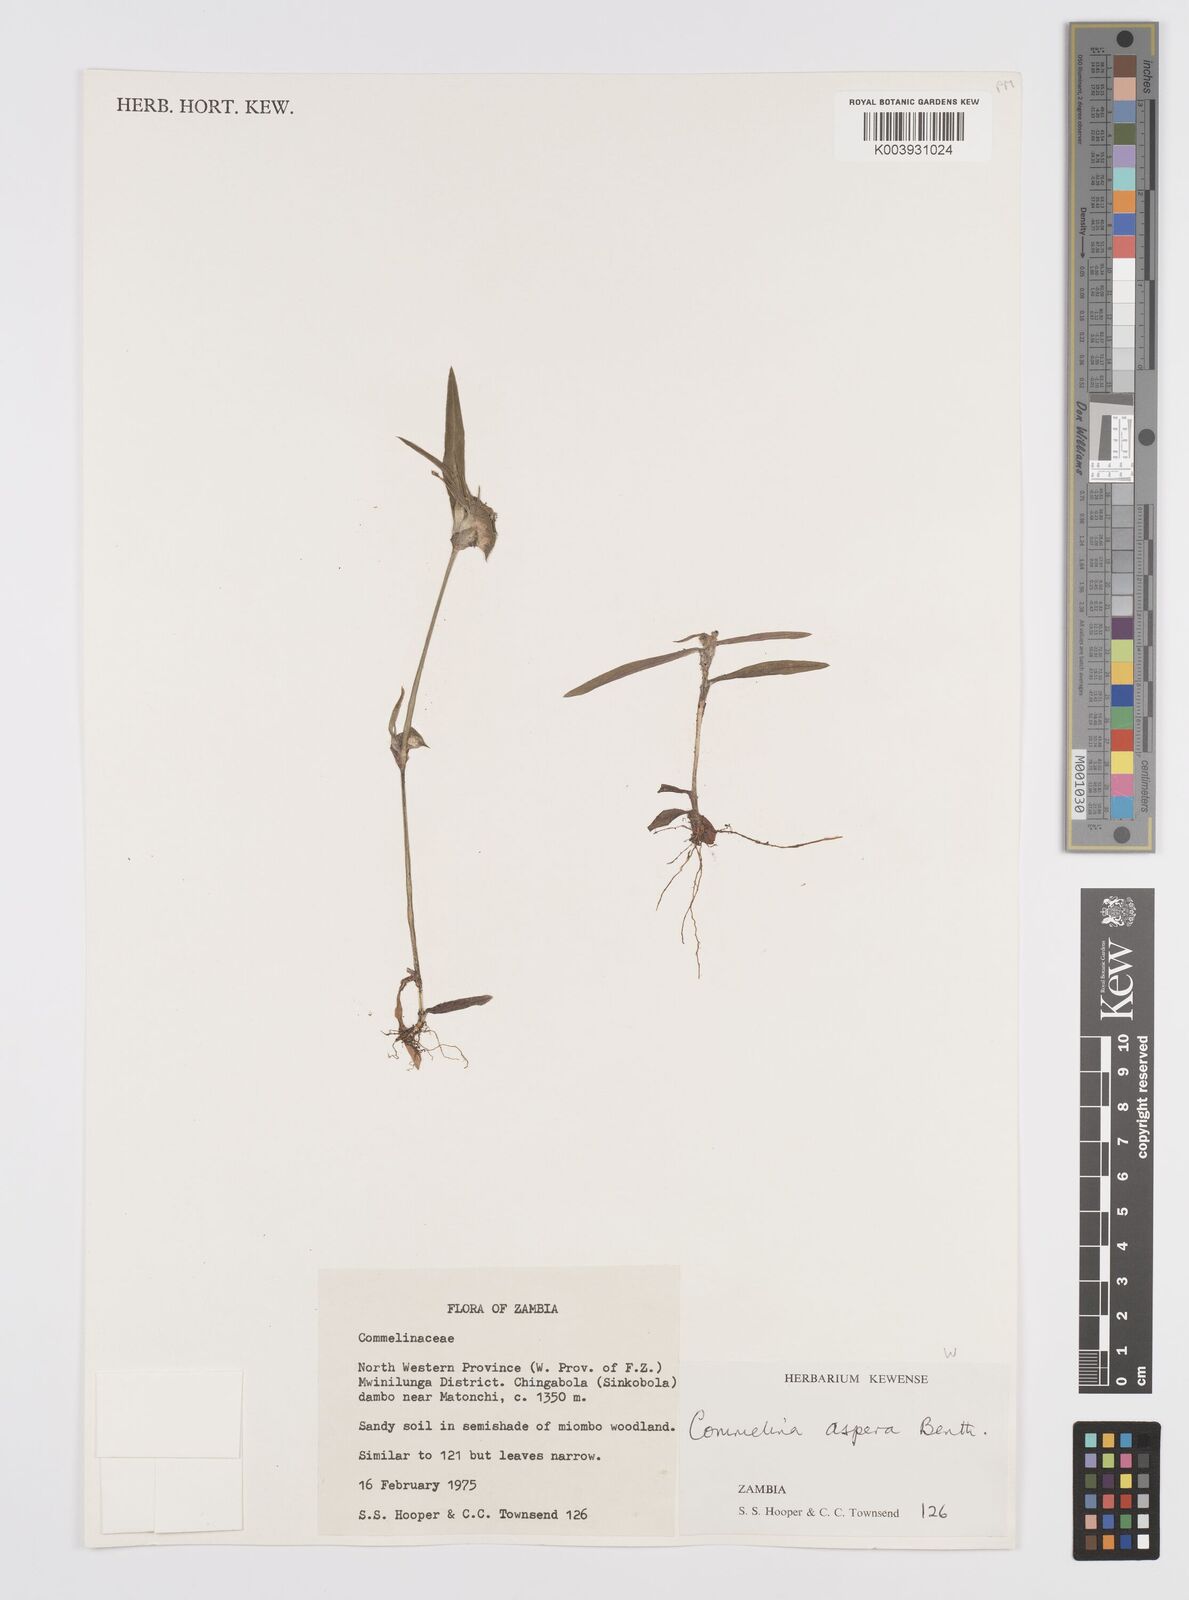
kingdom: Plantae
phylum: Tracheophyta
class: Liliopsida
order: Commelinales
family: Commelinaceae
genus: Commelina
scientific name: Commelina aspera
